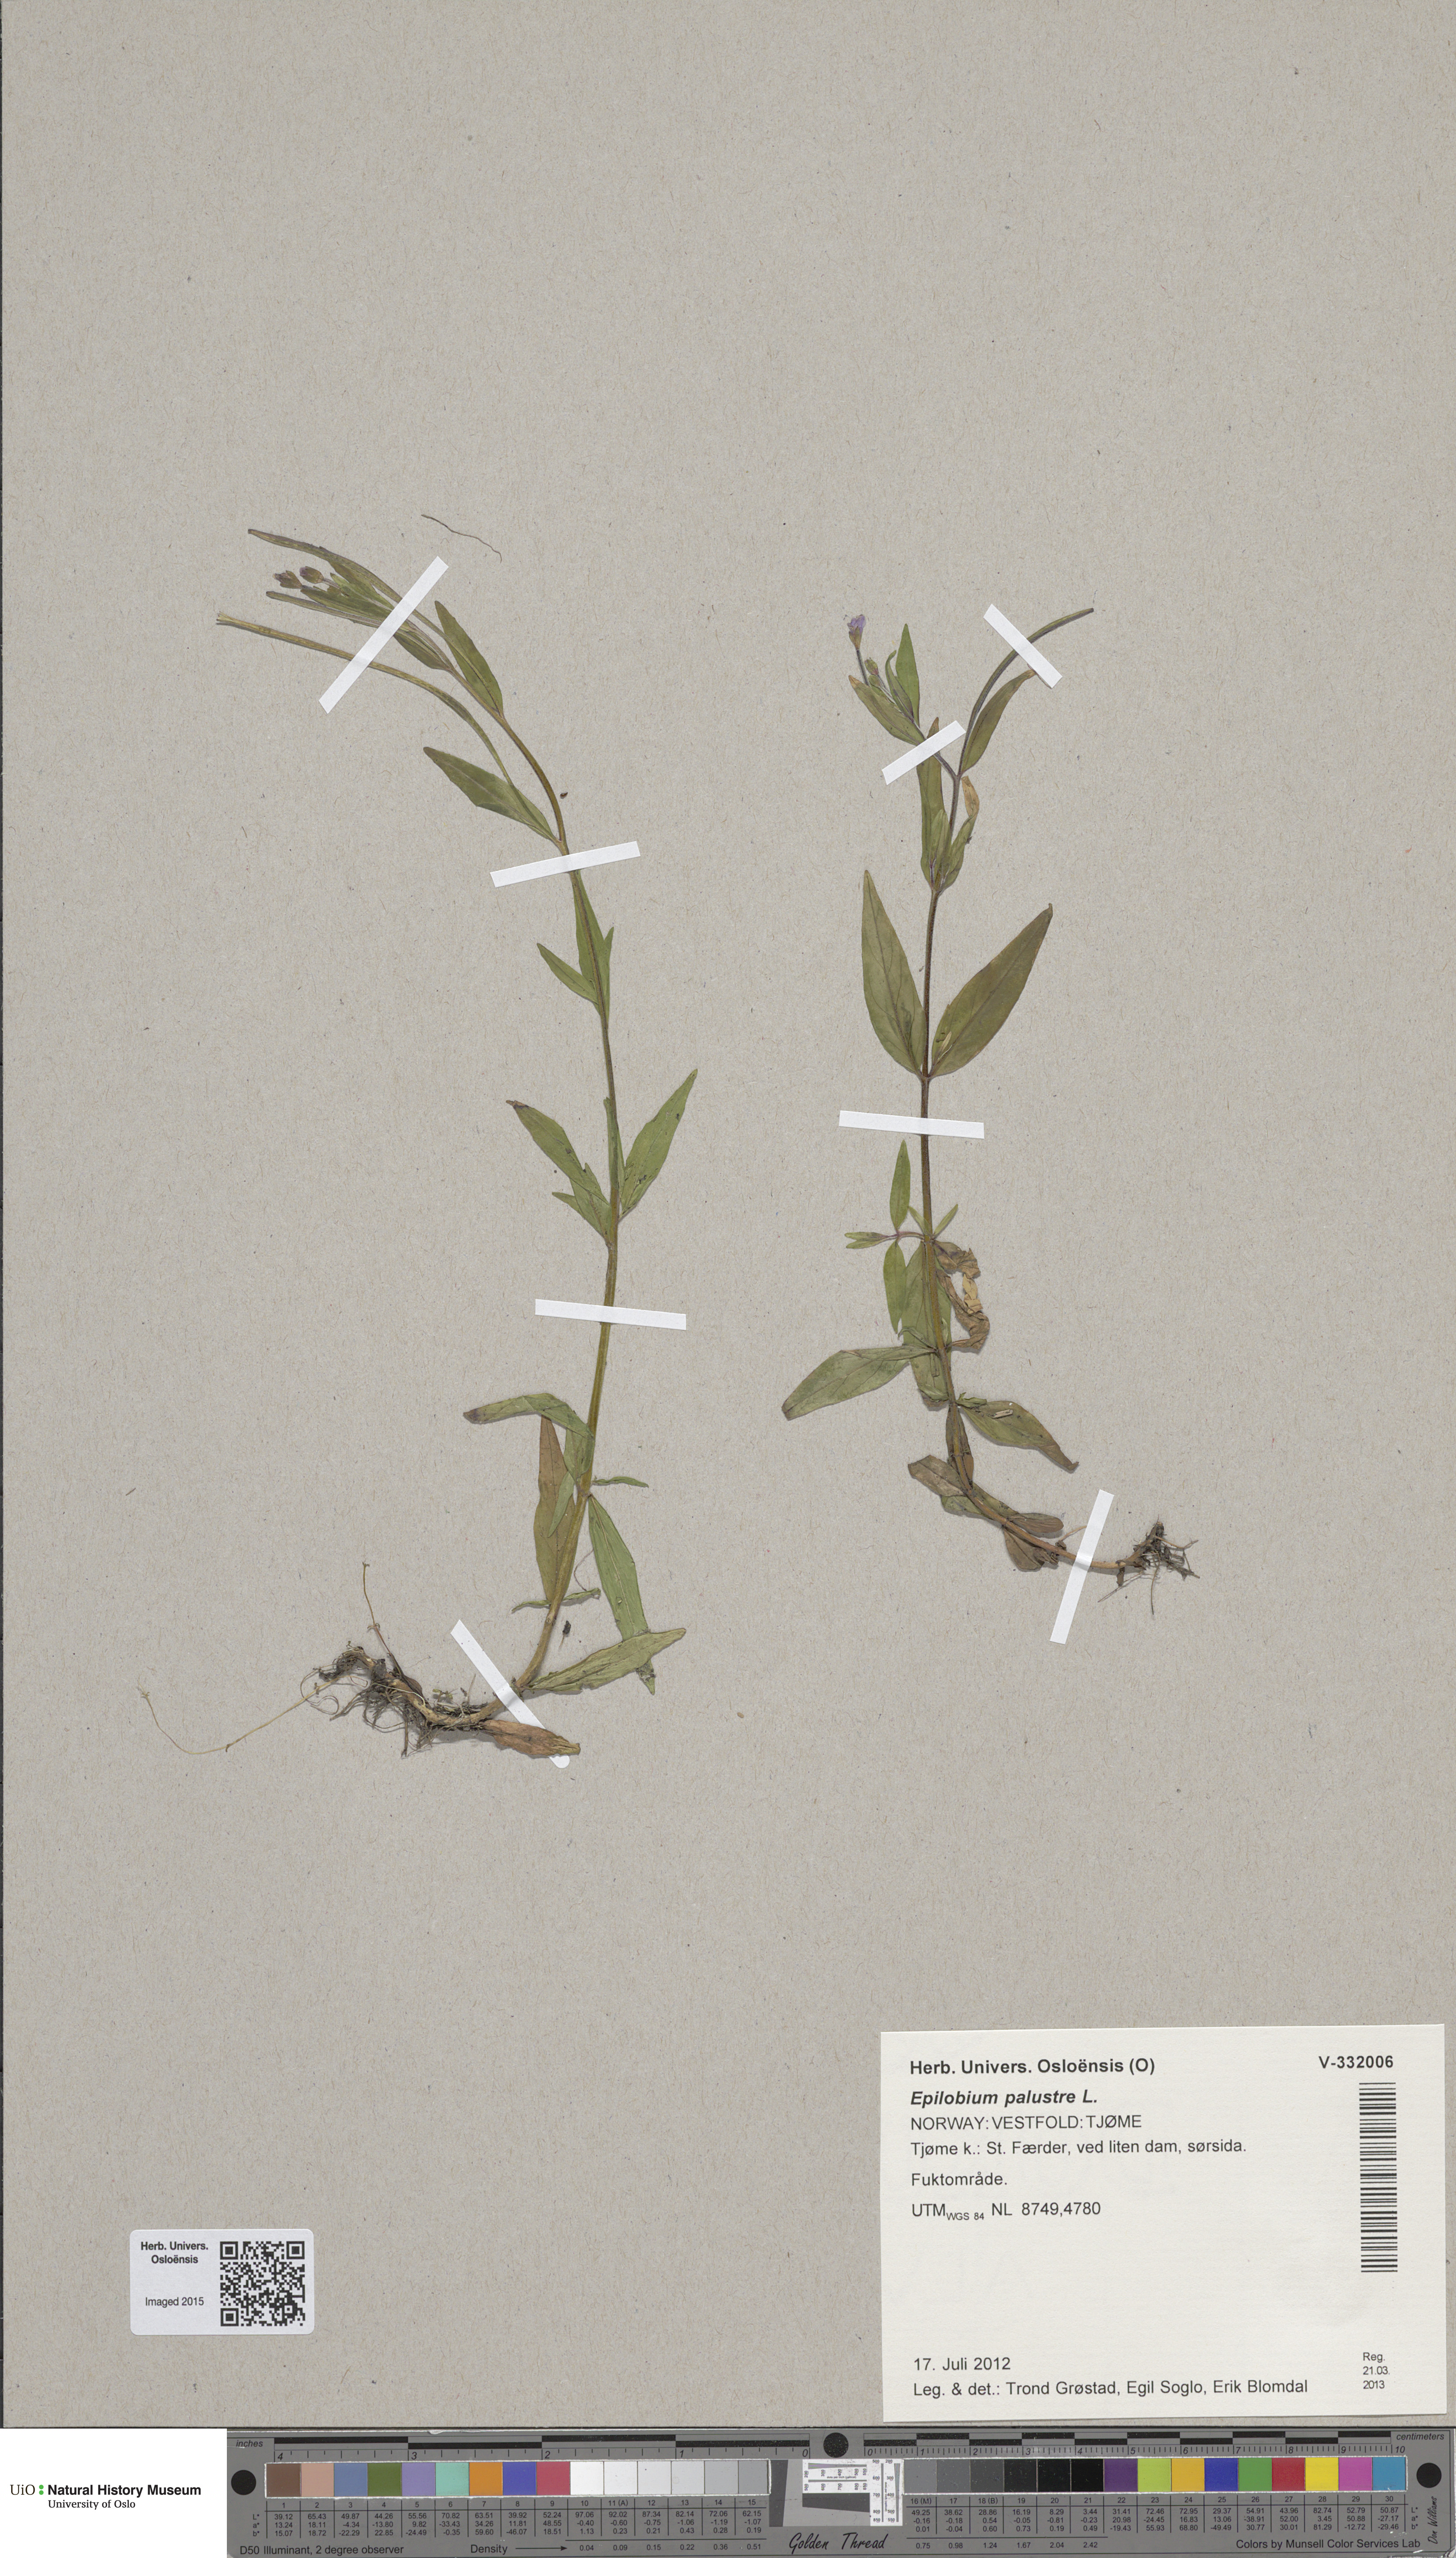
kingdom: Plantae
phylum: Tracheophyta
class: Magnoliopsida
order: Myrtales
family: Onagraceae
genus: Epilobium
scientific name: Epilobium palustre
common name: Marsh willowherb
